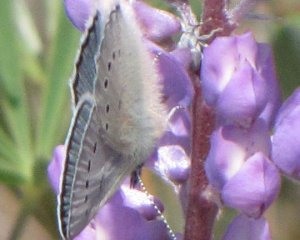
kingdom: Animalia
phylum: Arthropoda
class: Insecta
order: Lepidoptera
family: Lycaenidae
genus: Glaucopsyche
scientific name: Glaucopsyche lygdamus
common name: Silvery Blue
